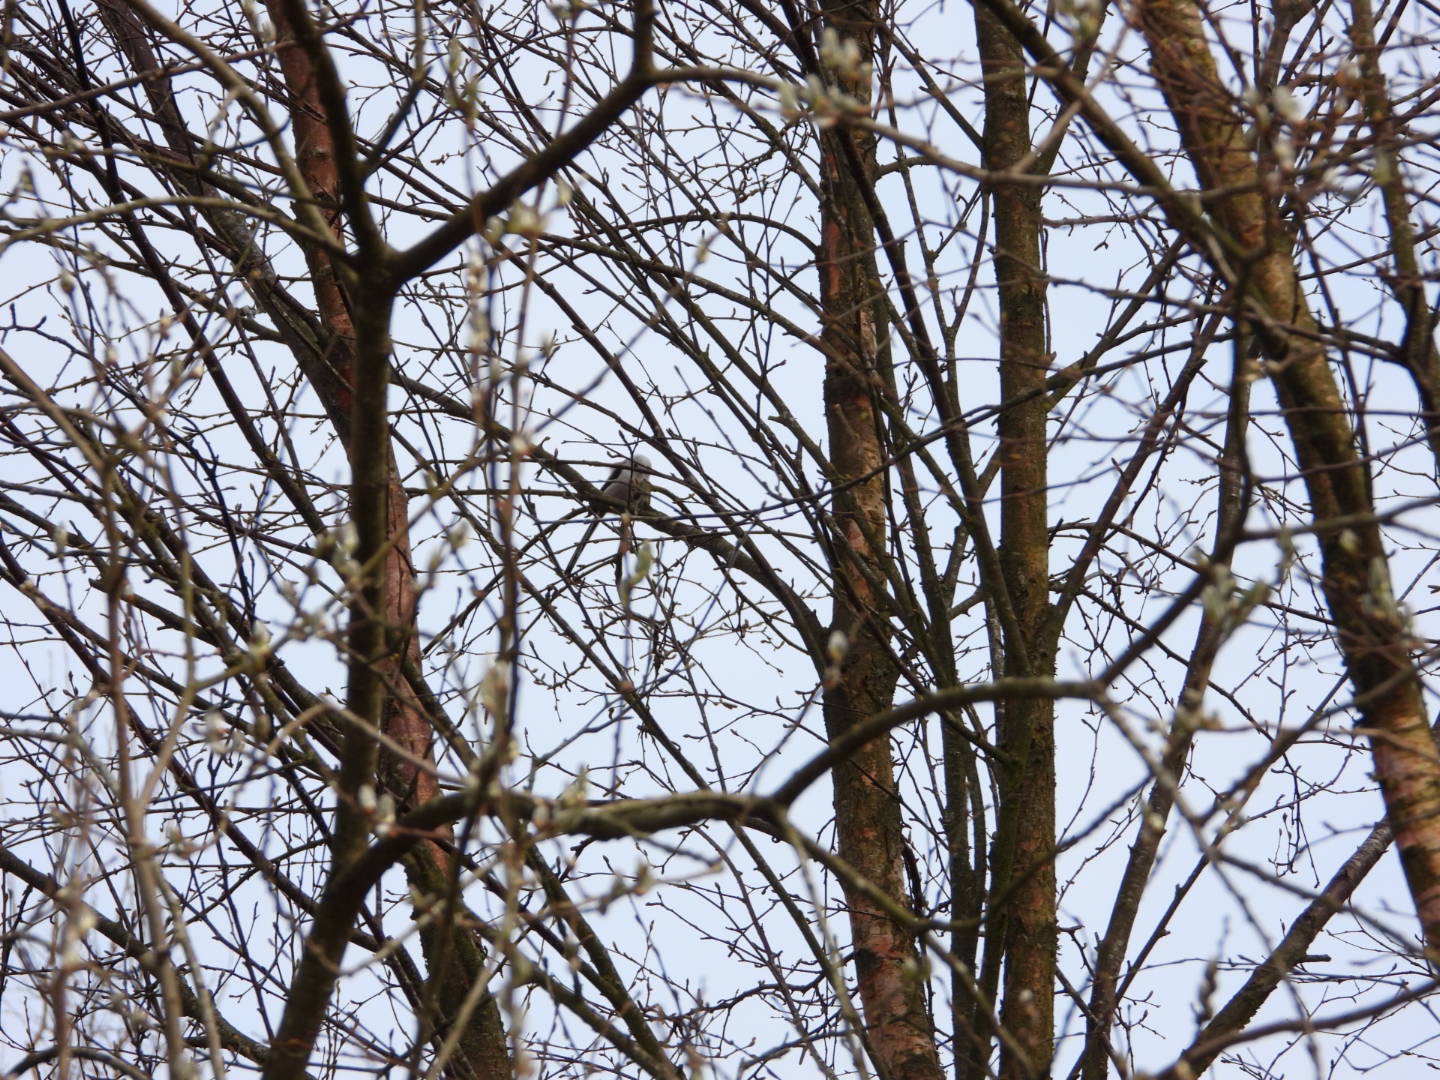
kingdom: Animalia
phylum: Chordata
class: Aves
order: Passeriformes
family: Aegithalidae
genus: Aegithalos
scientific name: Aegithalos caudatus
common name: Halemejse
